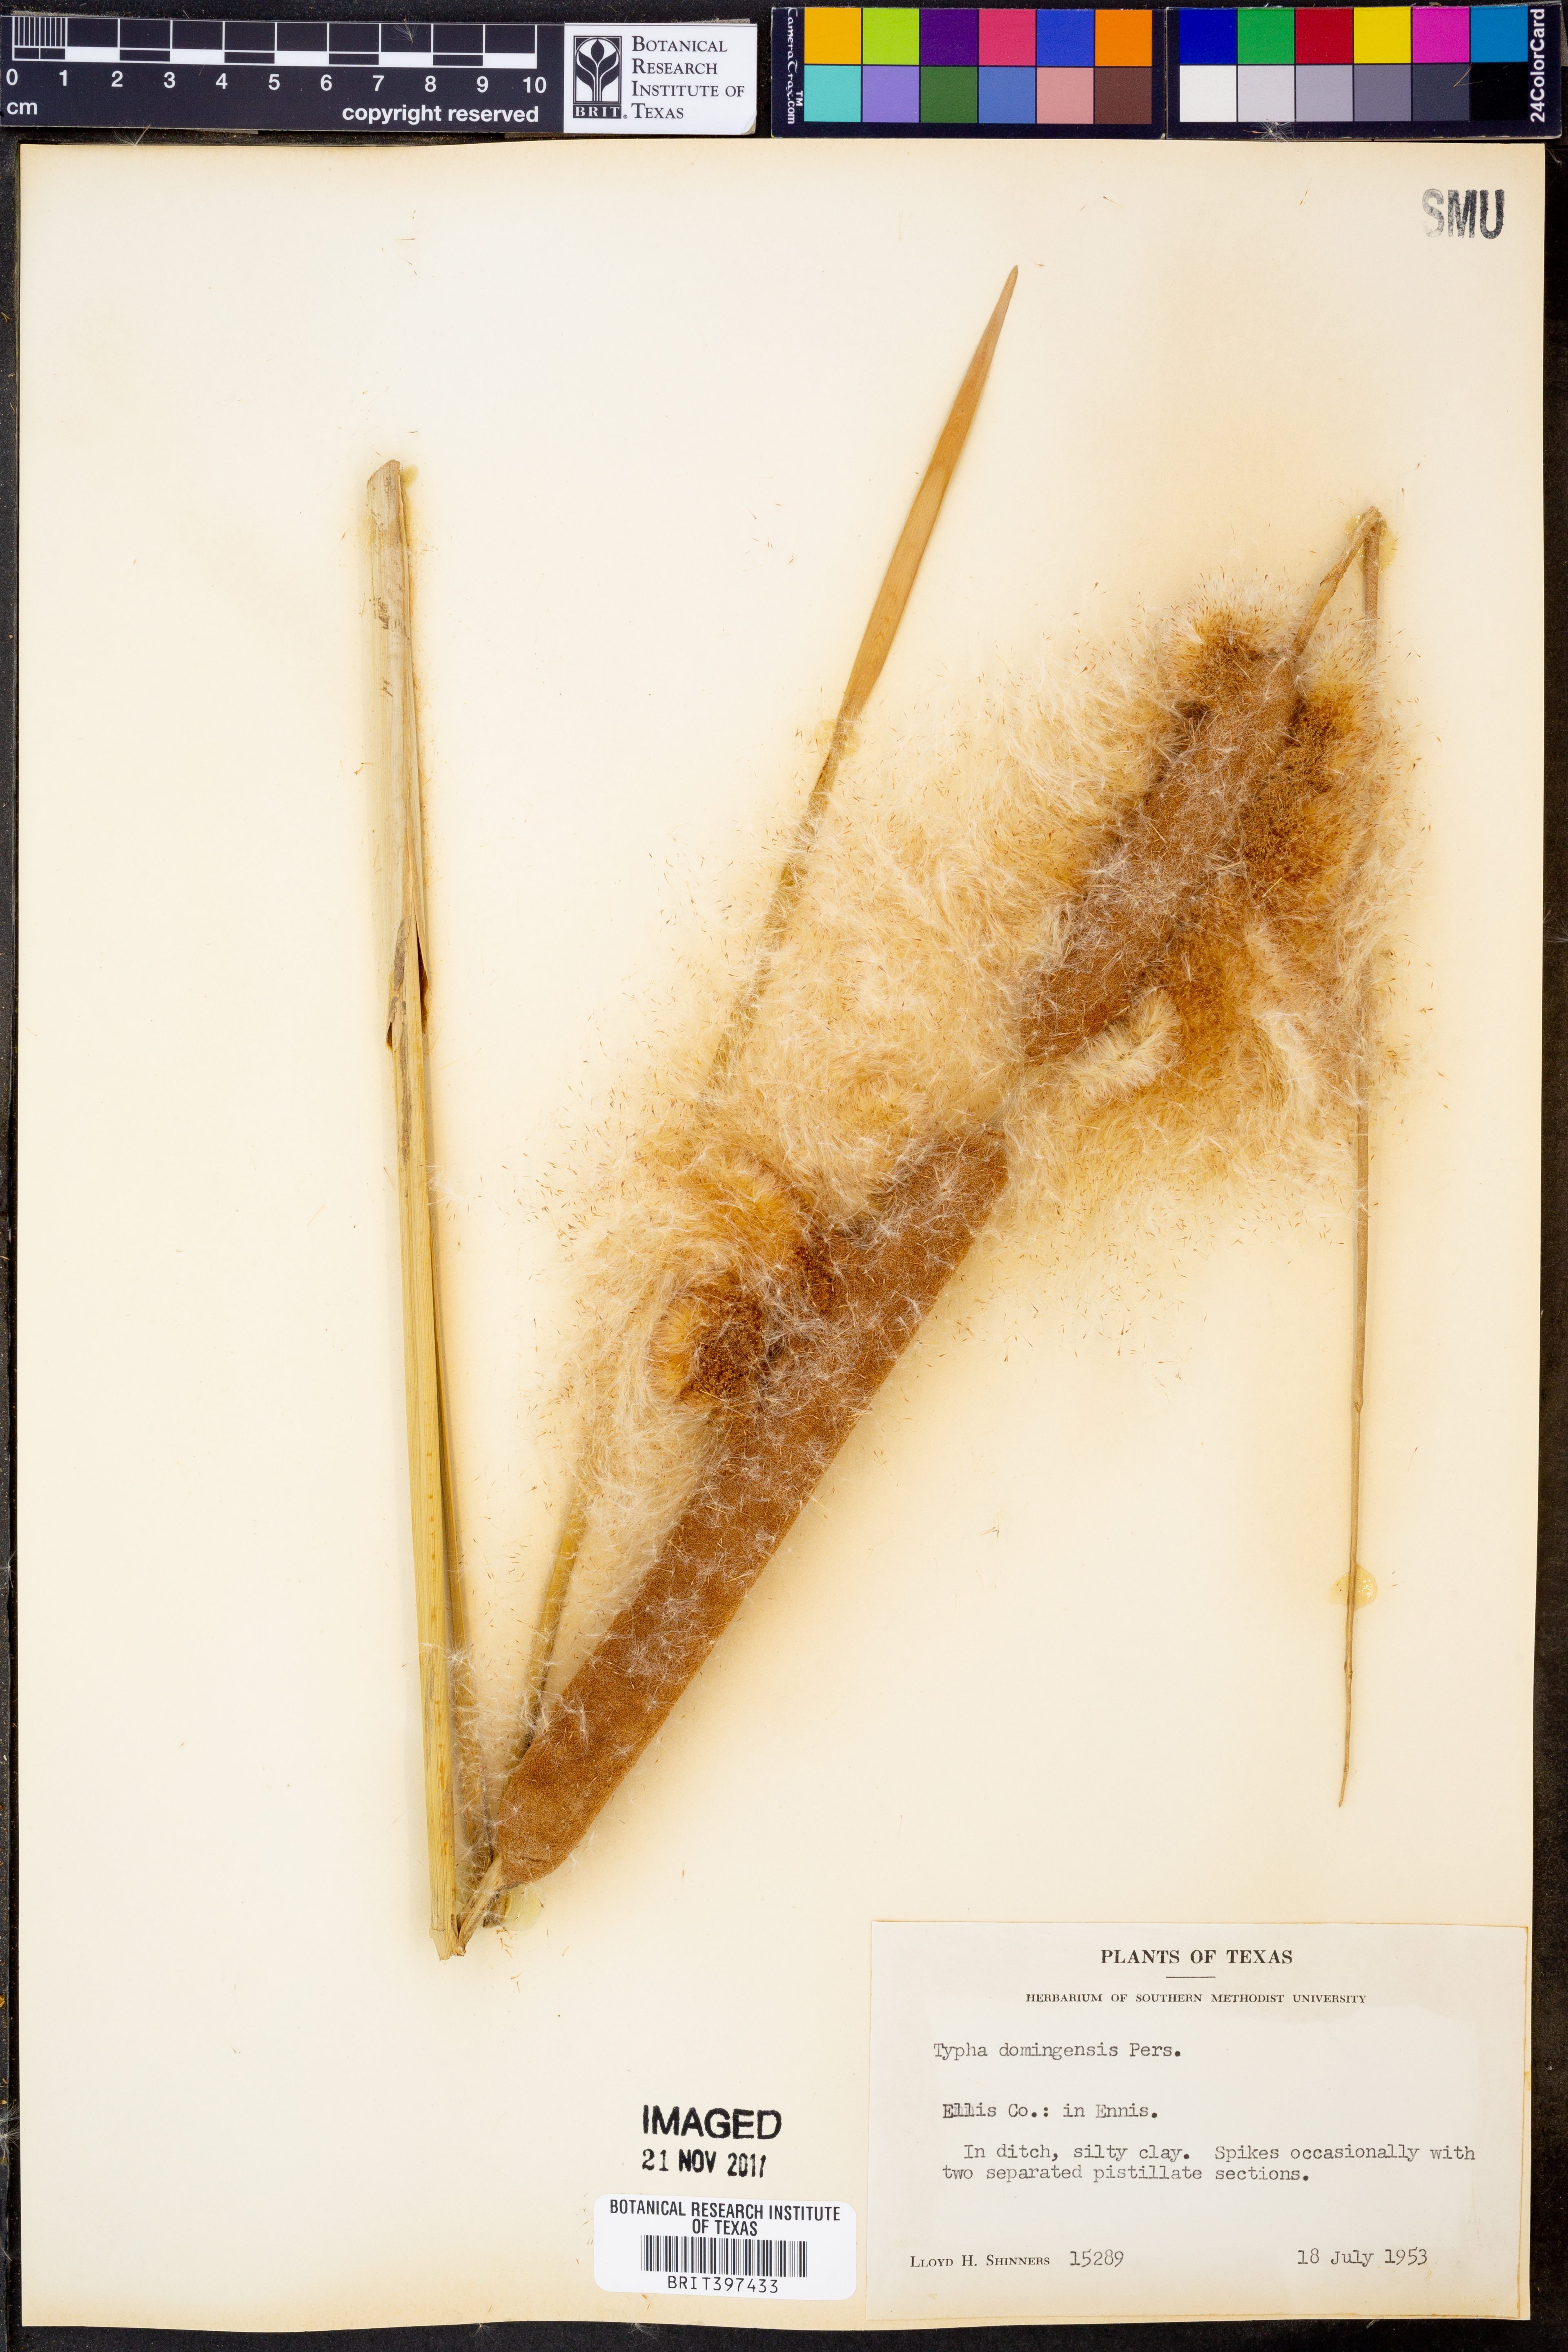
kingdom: Plantae
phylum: Tracheophyta
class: Liliopsida
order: Poales
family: Typhaceae
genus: Typha
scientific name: Typha domingensis
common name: Southern cattail
